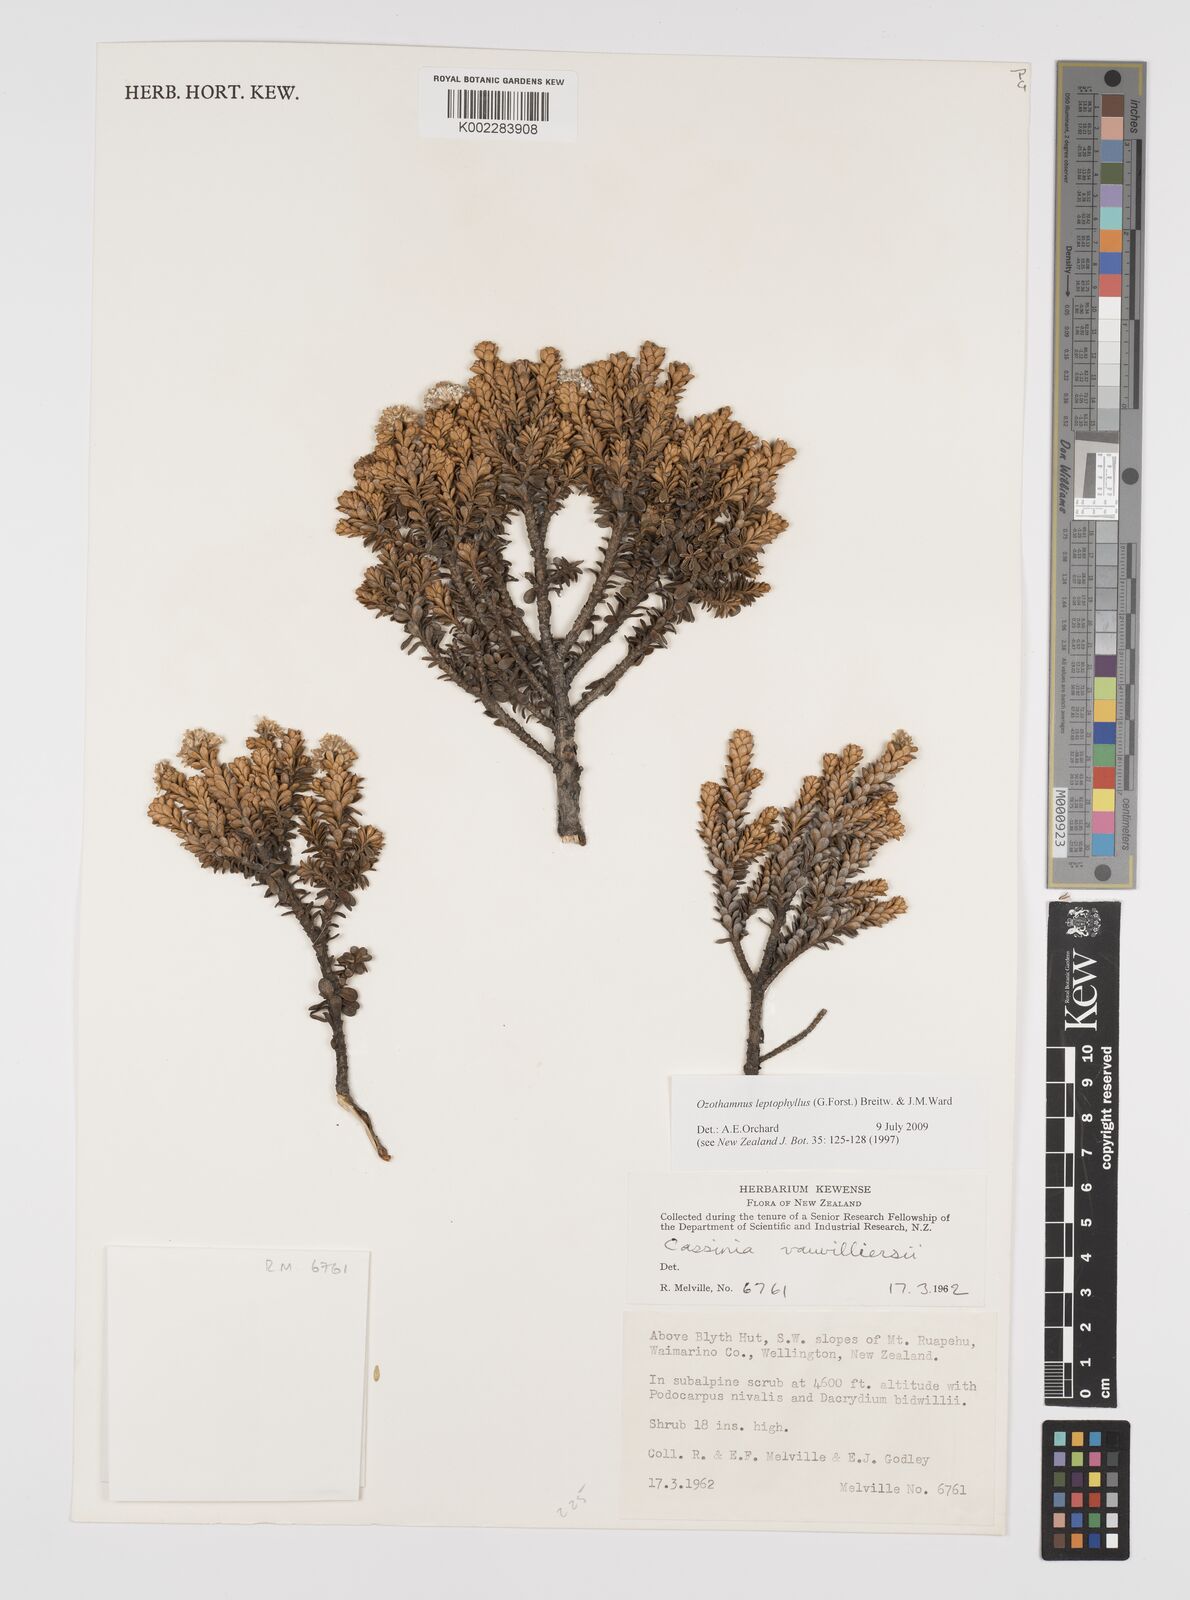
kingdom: Plantae
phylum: Tracheophyta
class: Magnoliopsida
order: Asterales
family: Asteraceae
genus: Ozothamnus
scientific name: Ozothamnus leptophyllus
